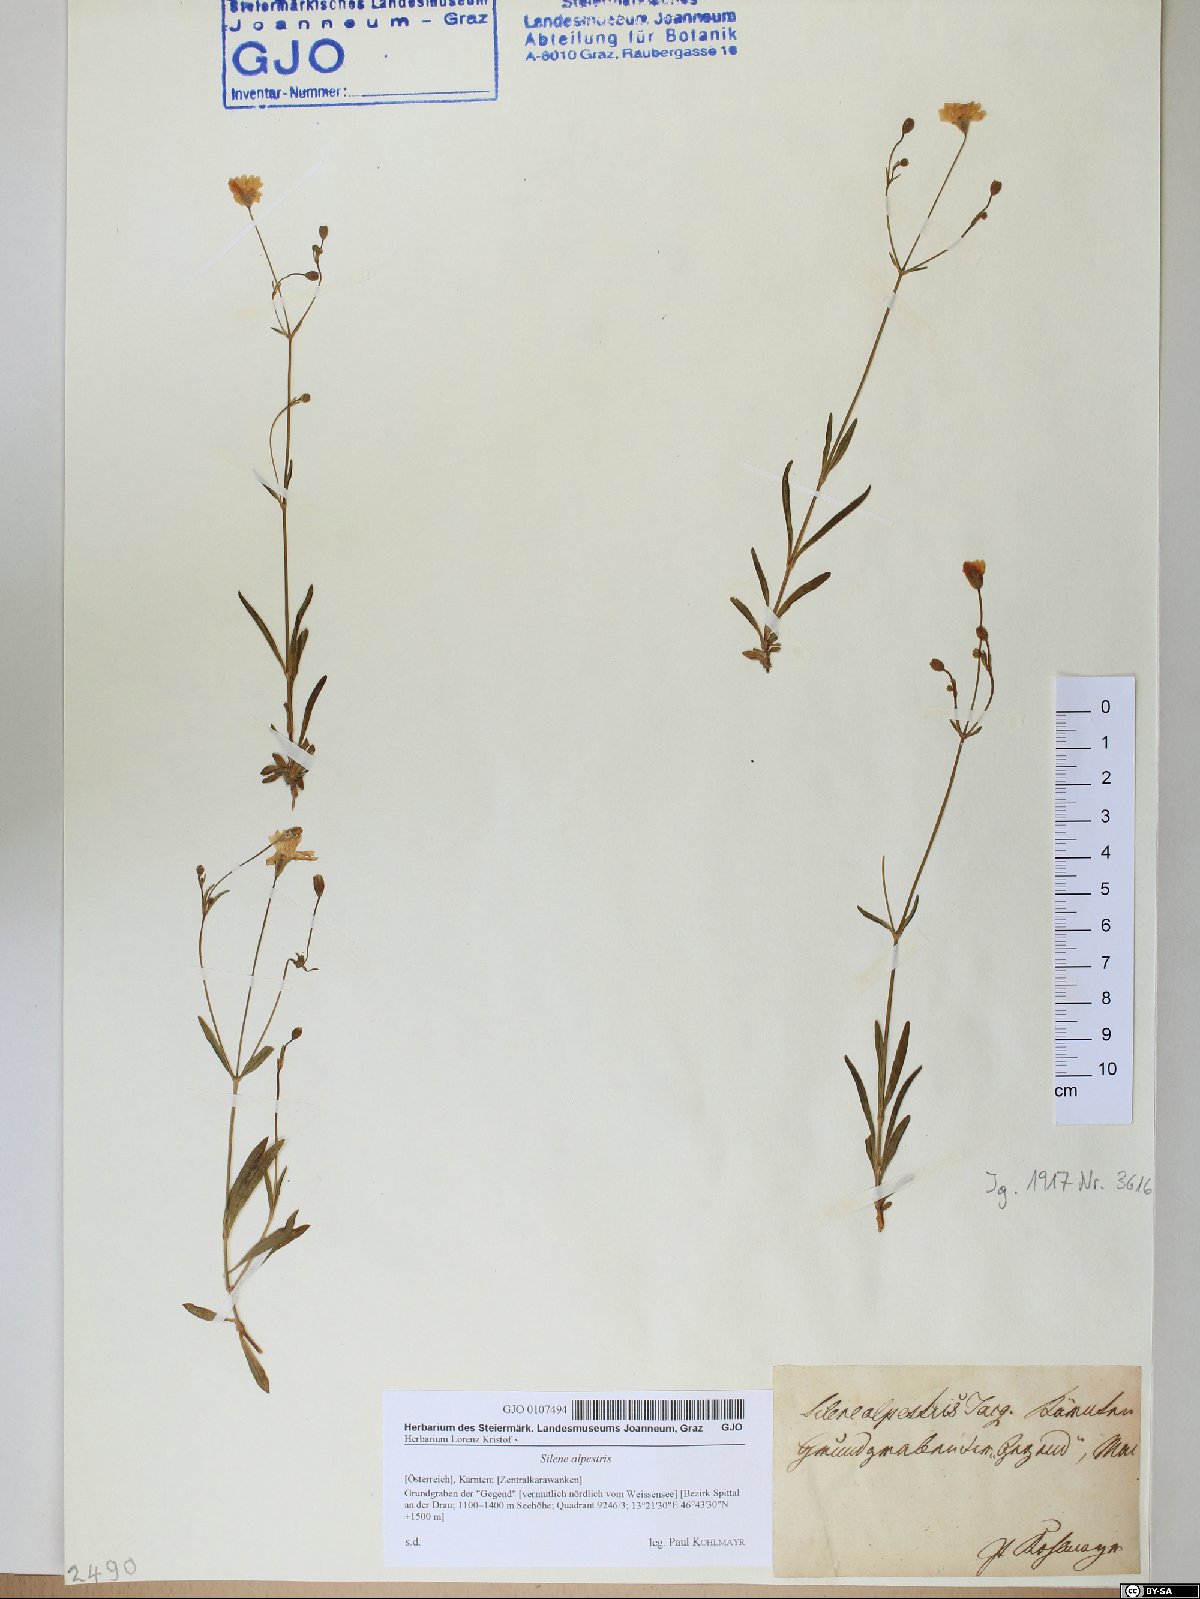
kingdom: Plantae
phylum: Tracheophyta
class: Magnoliopsida
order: Caryophyllales
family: Caryophyllaceae
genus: Heliosperma
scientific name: Heliosperma alpestre
